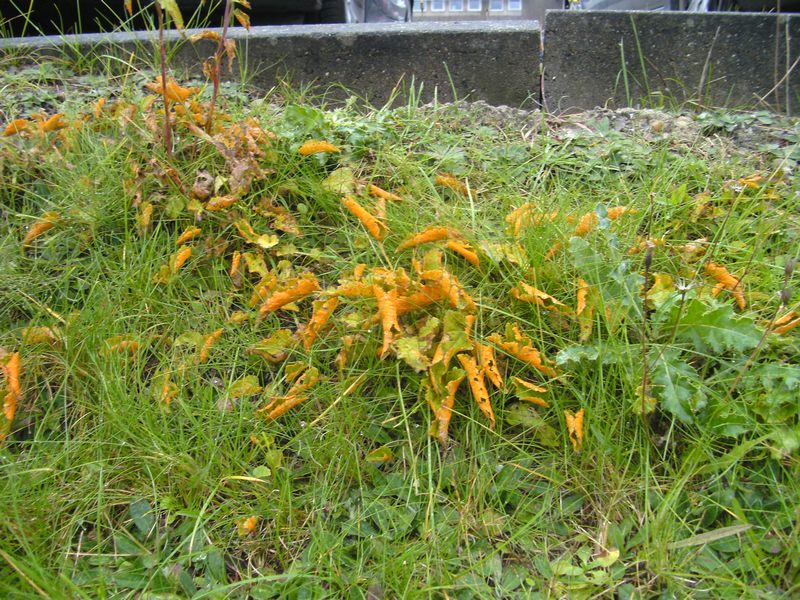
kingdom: Fungi
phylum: Basidiomycota
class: Pucciniomycetes
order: Pucciniales
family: Coleosporiaceae
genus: Coleosporium
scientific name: Coleosporium tussilaginis
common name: almindelig fyrrenålerust
